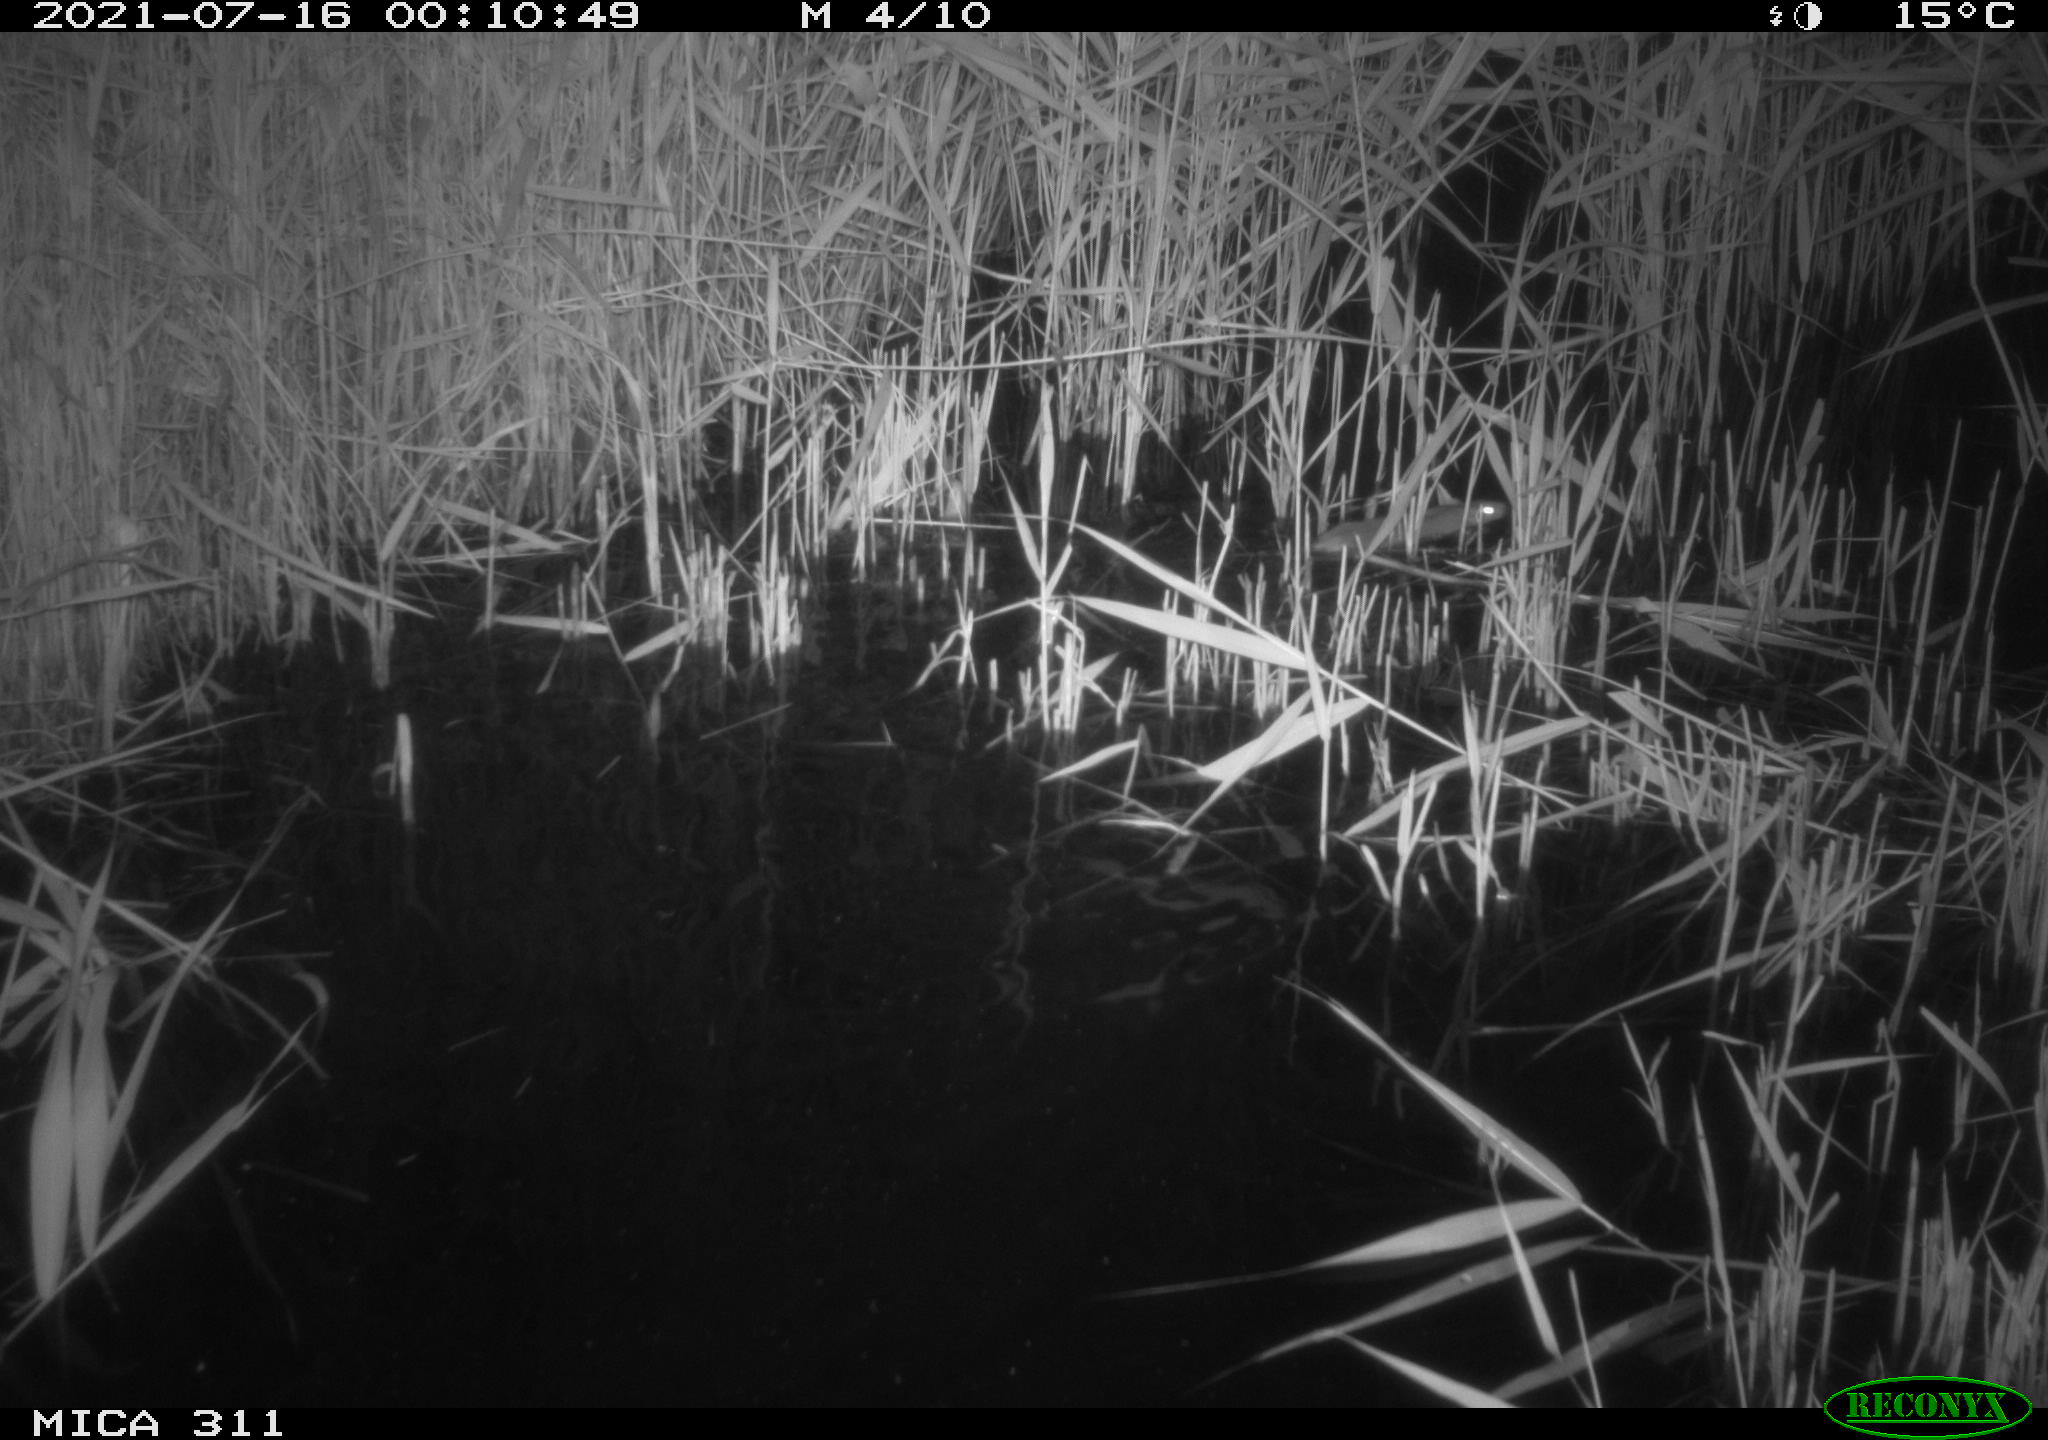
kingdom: Animalia
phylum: Chordata
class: Mammalia
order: Rodentia
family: Muridae
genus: Rattus
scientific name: Rattus norvegicus
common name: Brown rat
